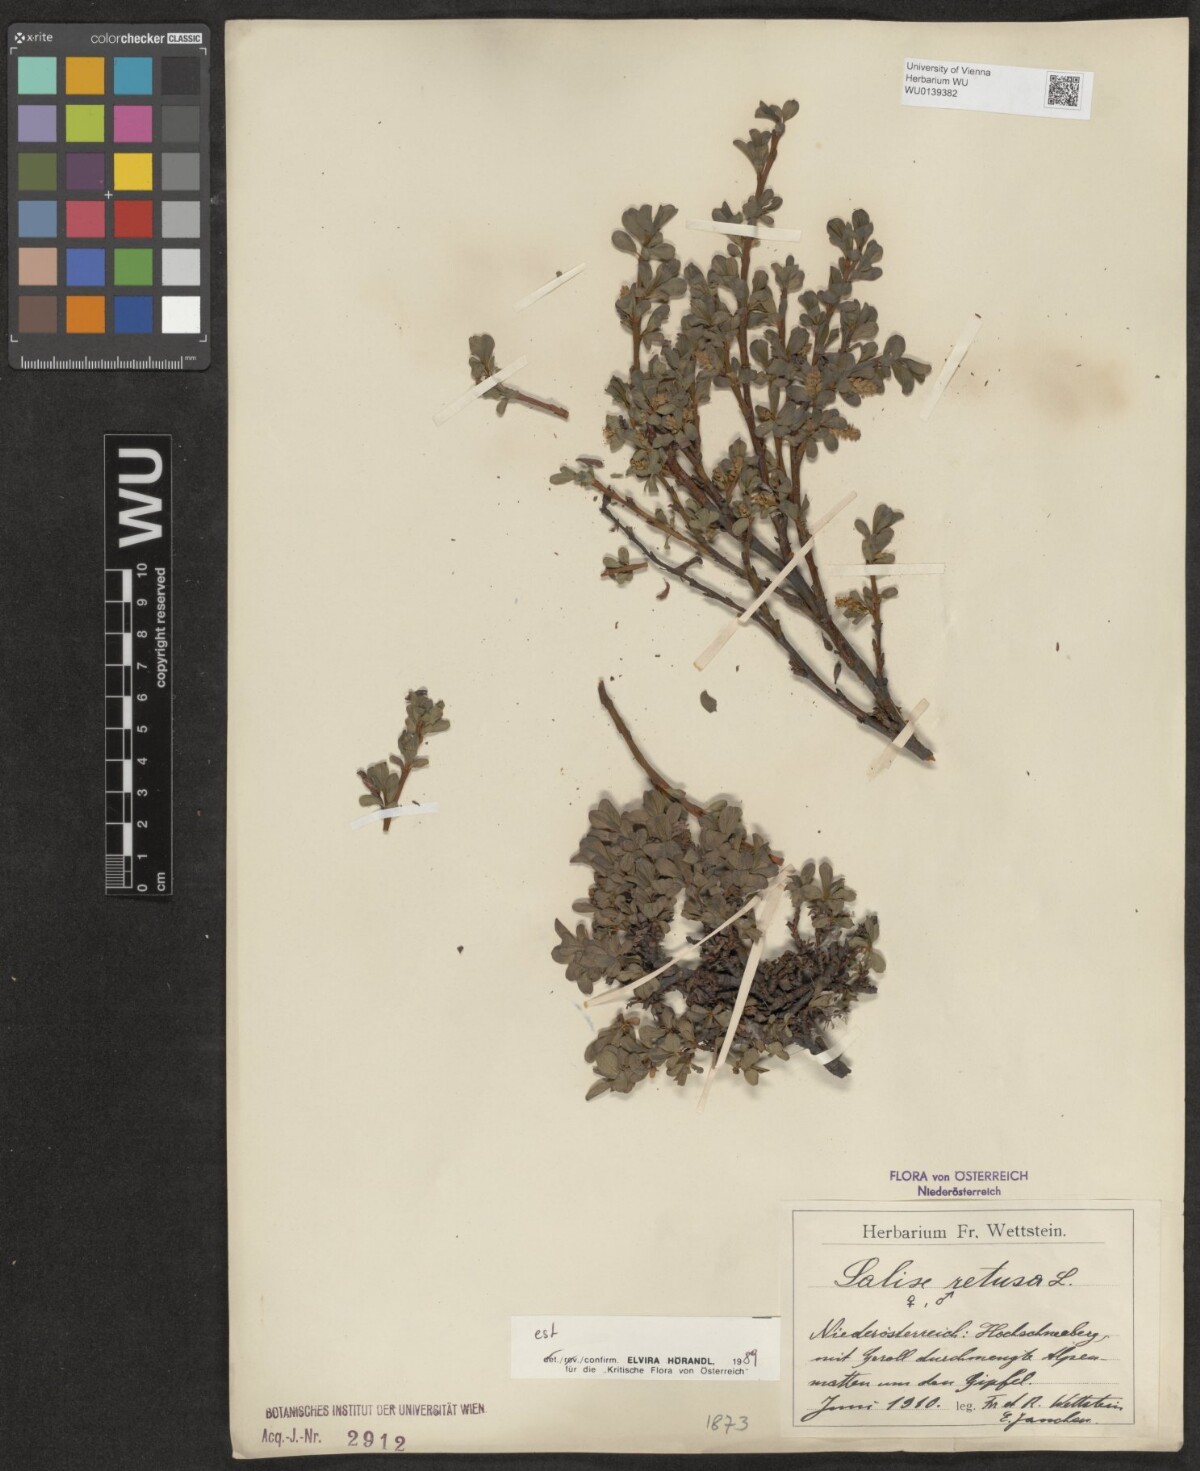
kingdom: Plantae
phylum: Tracheophyta
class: Magnoliopsida
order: Malpighiales
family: Salicaceae
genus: Salix
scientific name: Salix retusa
